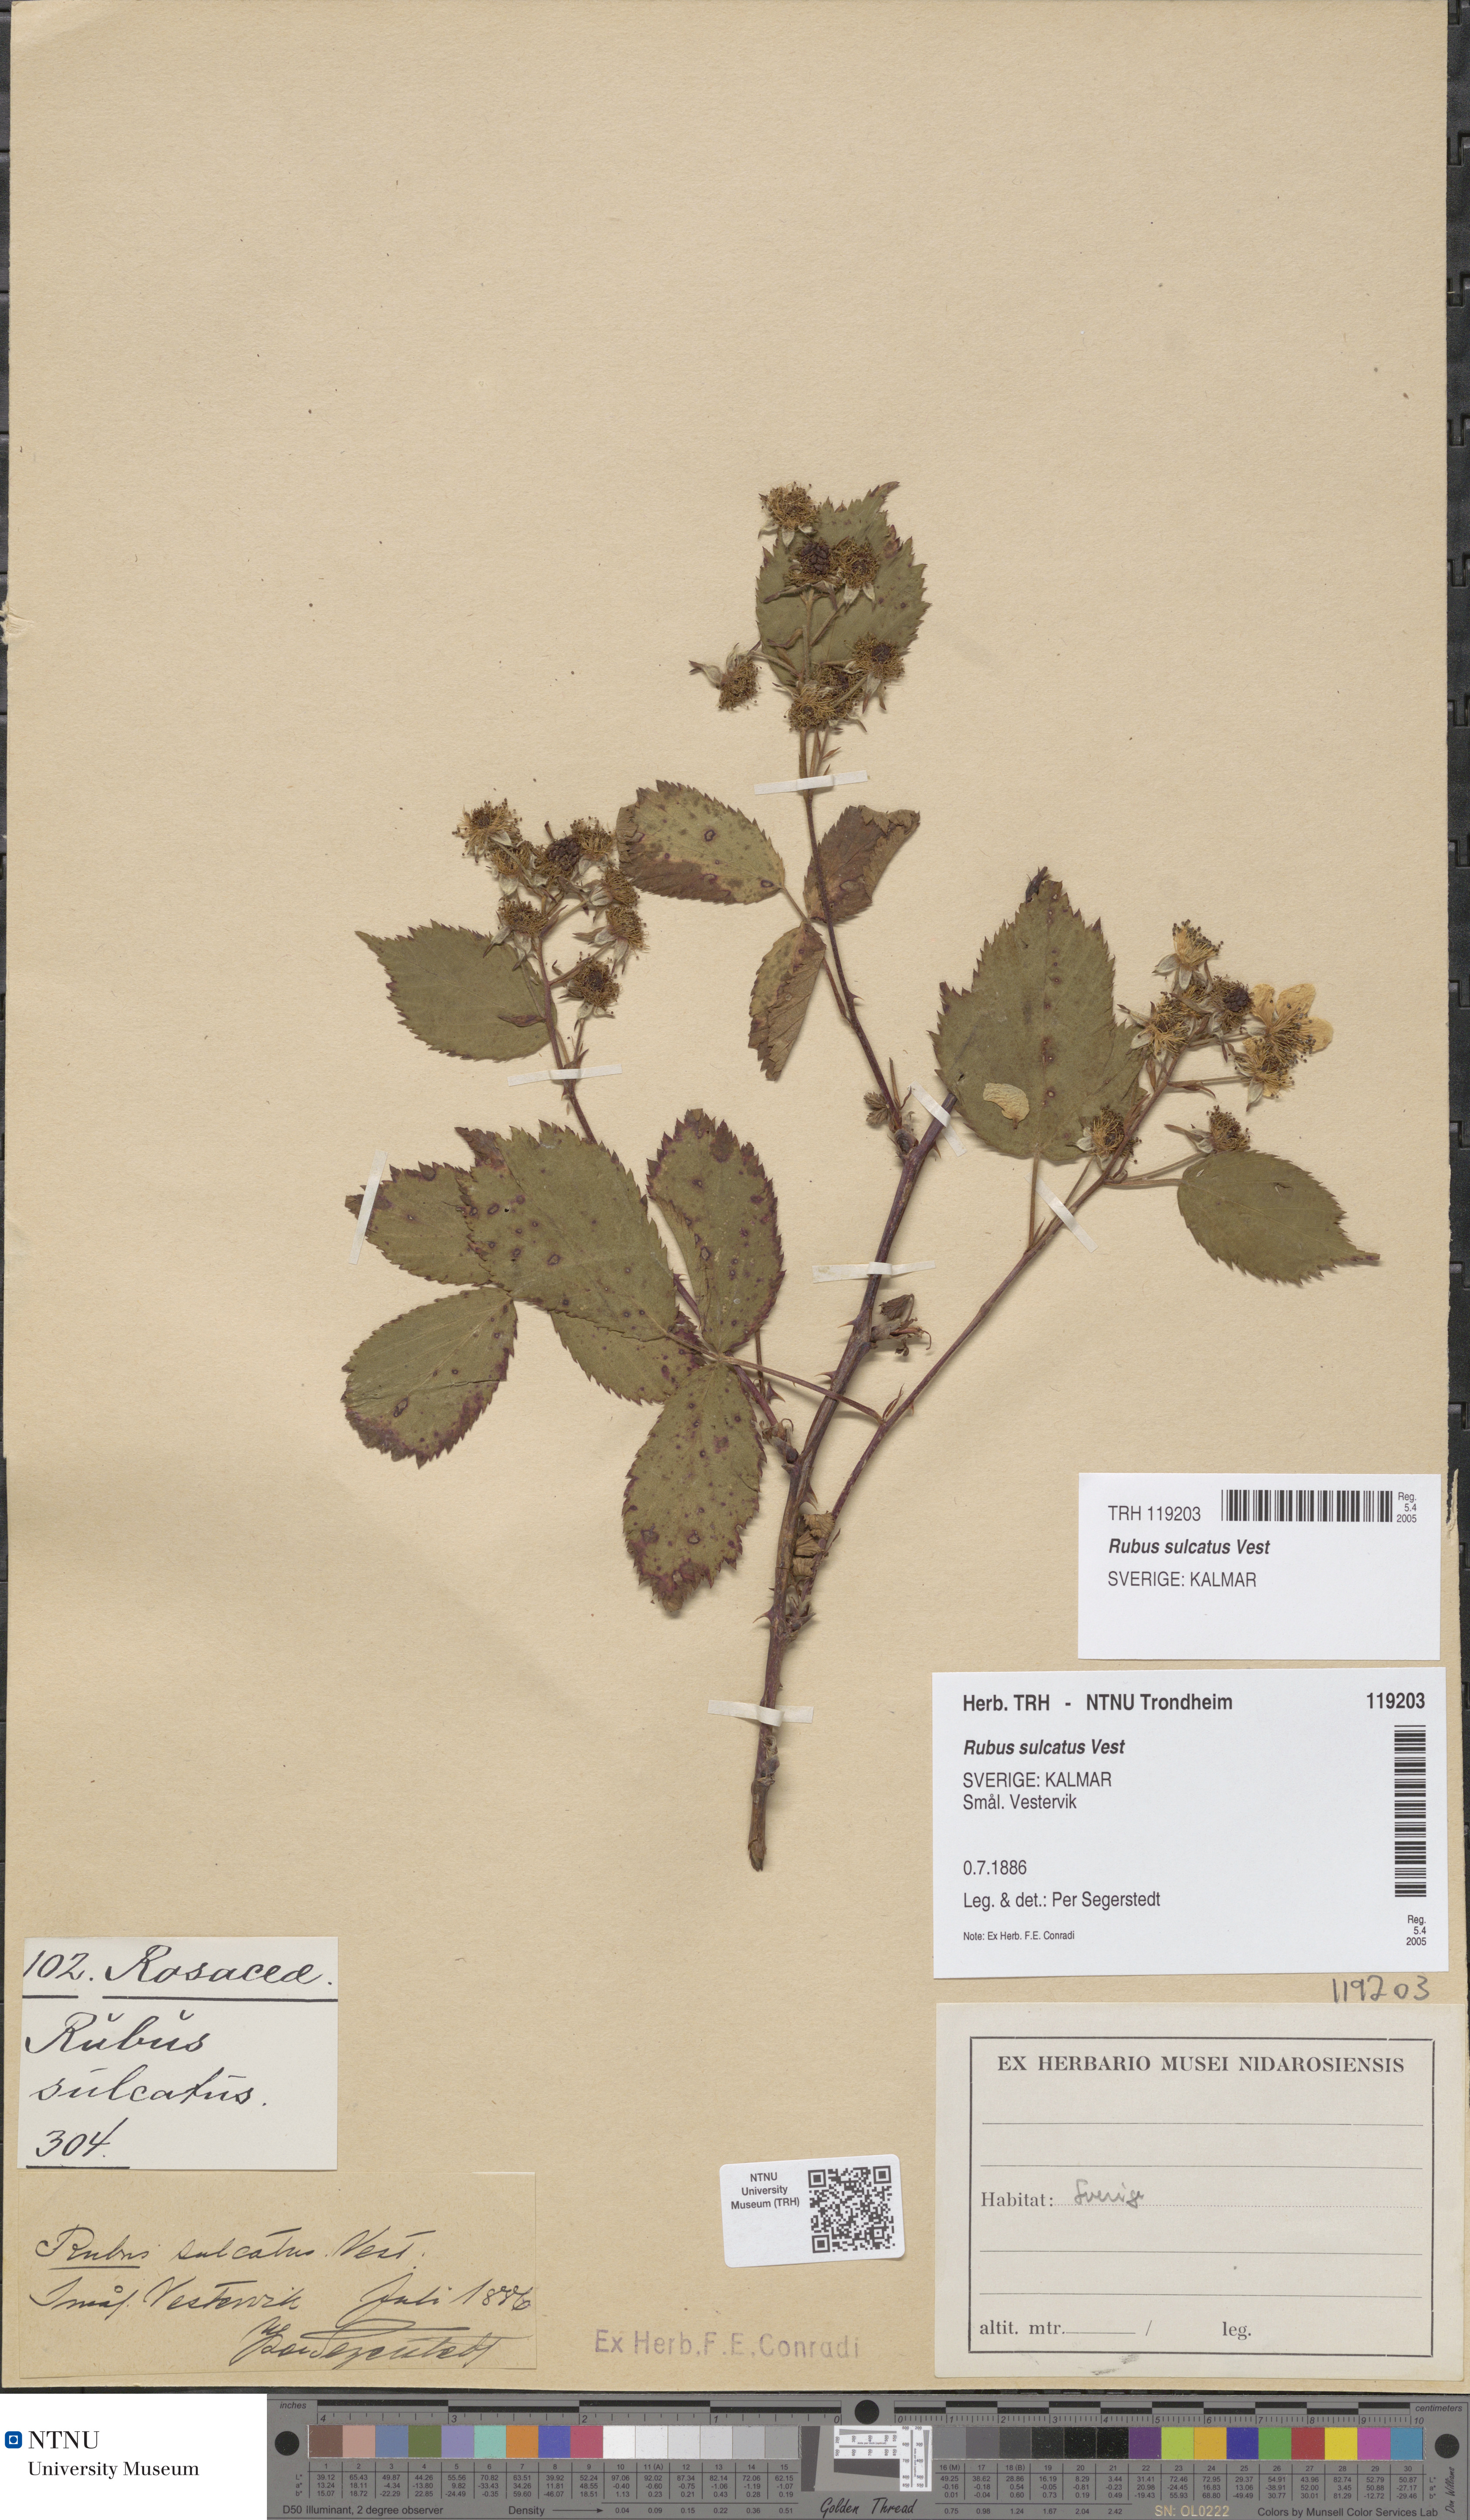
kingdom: Plantae
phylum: Tracheophyta
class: Magnoliopsida
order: Rosales
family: Rosaceae
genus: Rubus
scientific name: Rubus sulcatus
